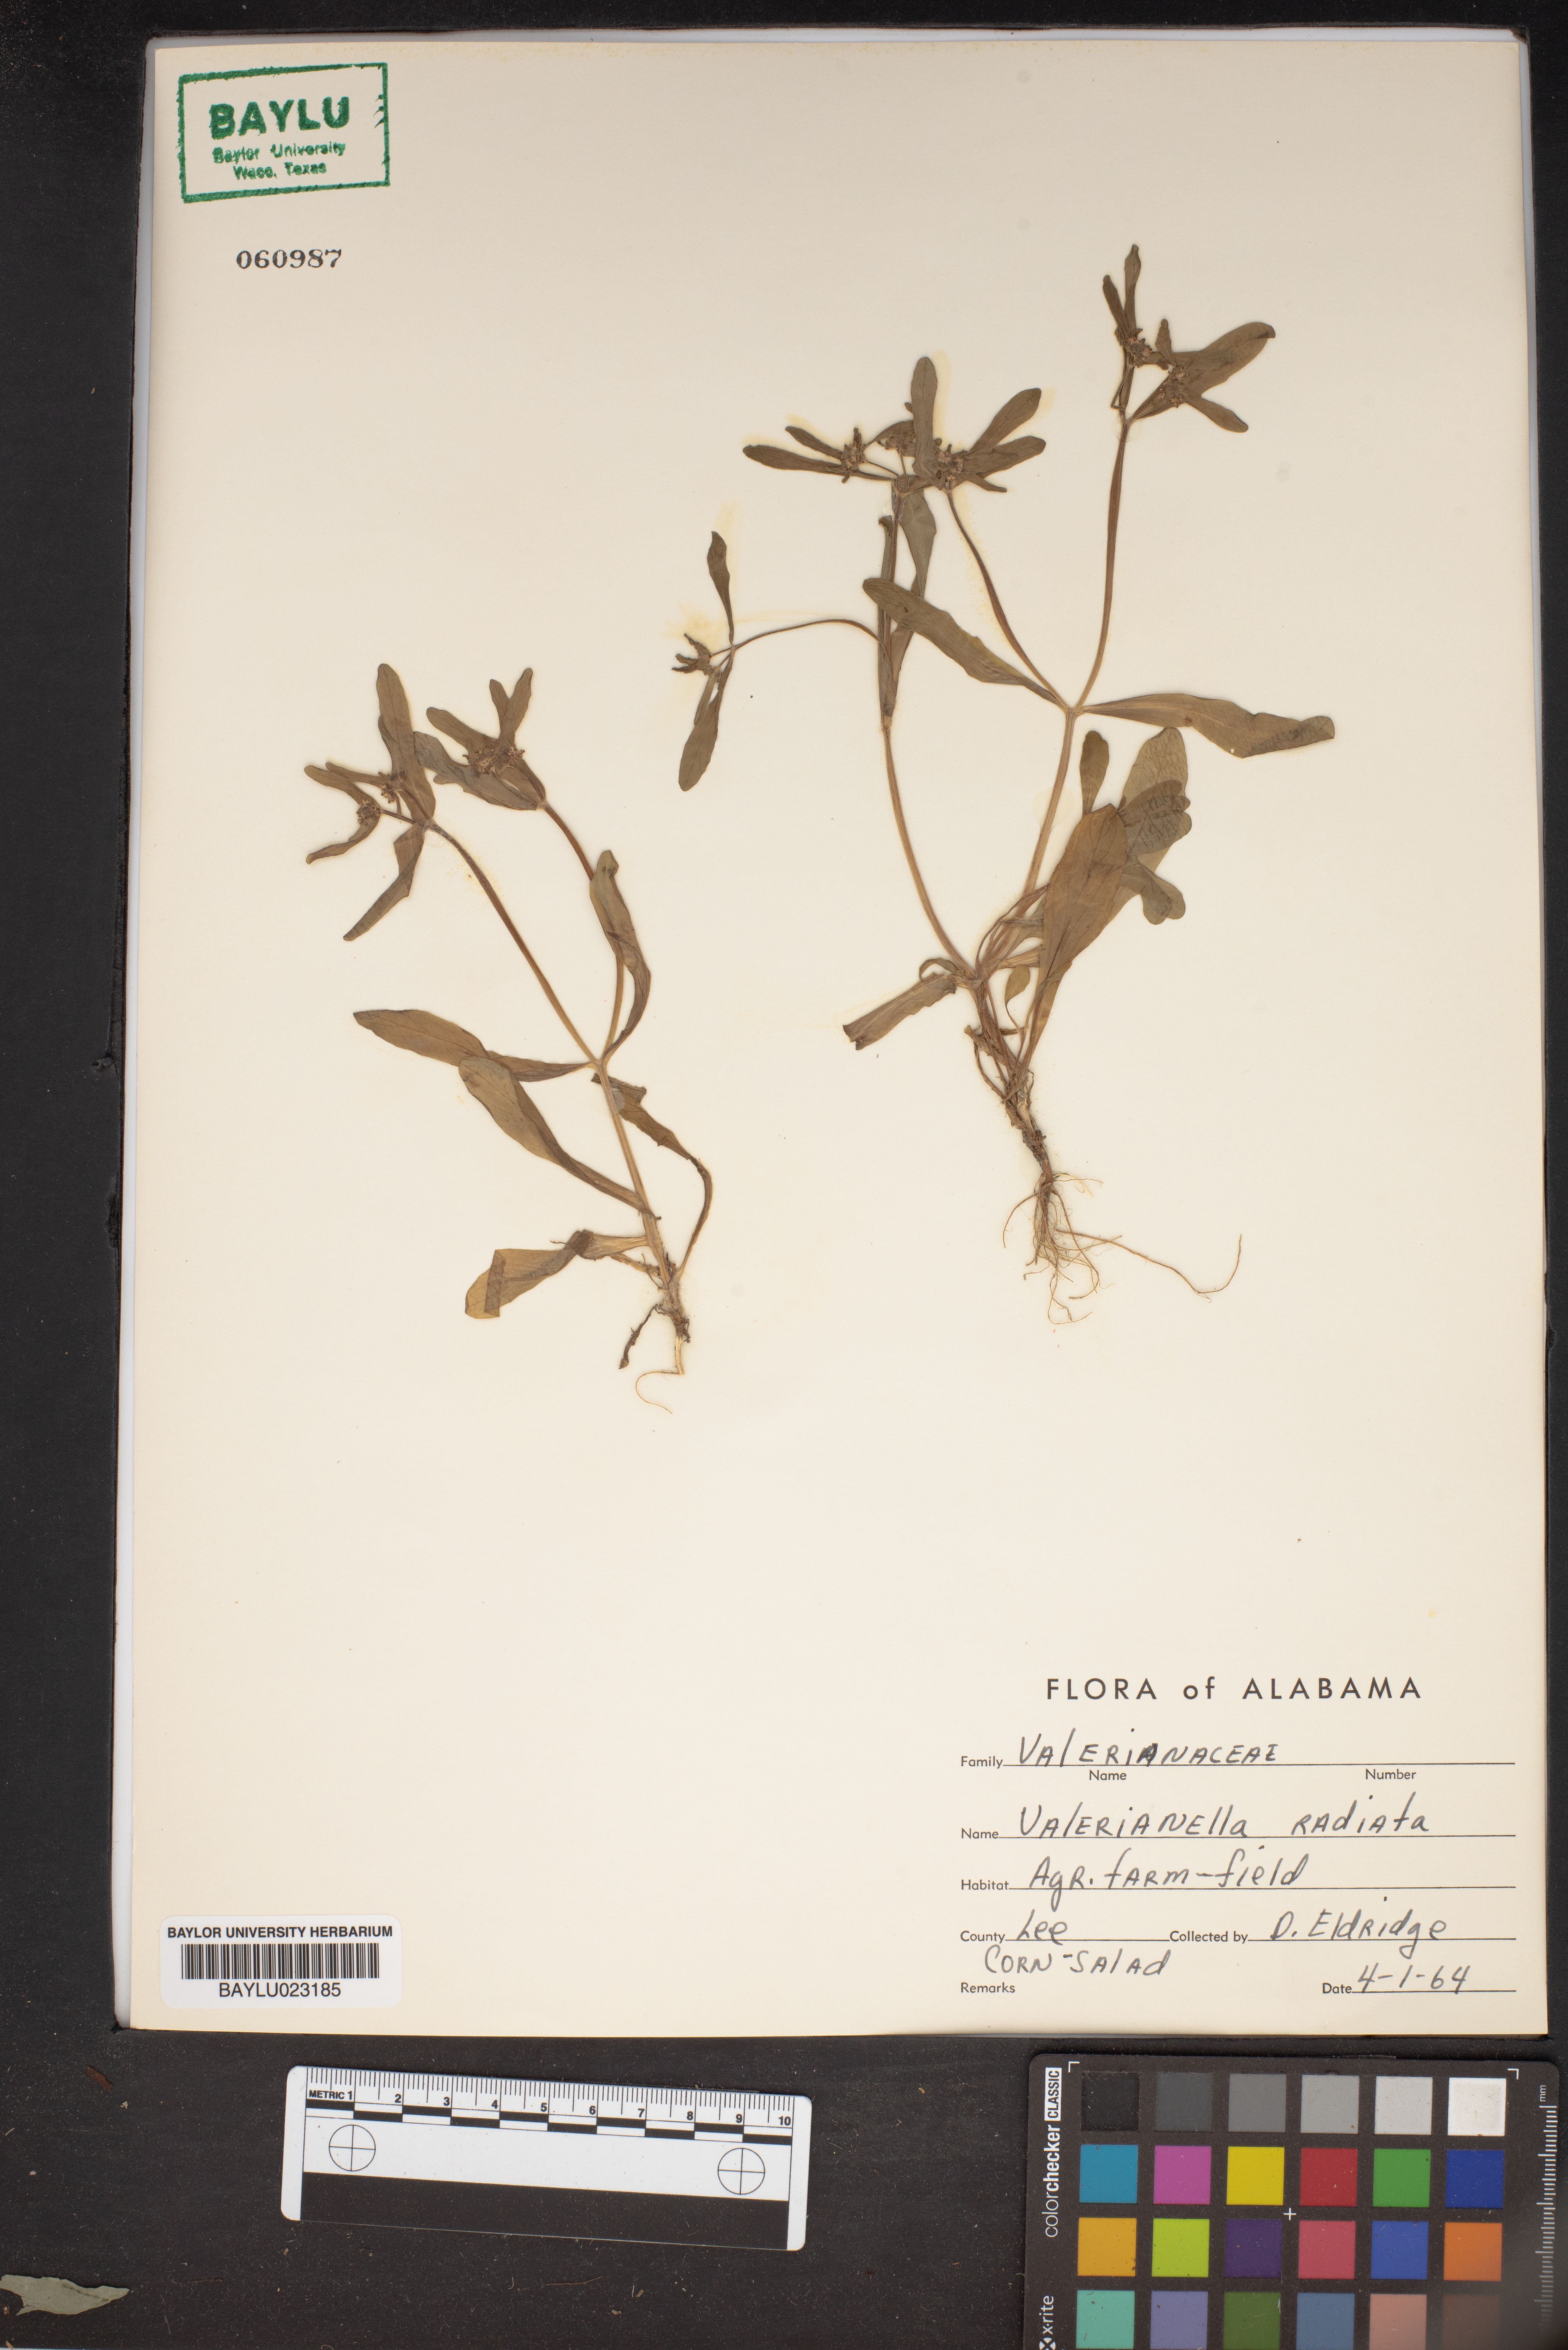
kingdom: Plantae
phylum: Tracheophyta
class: Magnoliopsida
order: Dipsacales
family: Caprifoliaceae
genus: Valerianella
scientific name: Valerianella radiata
